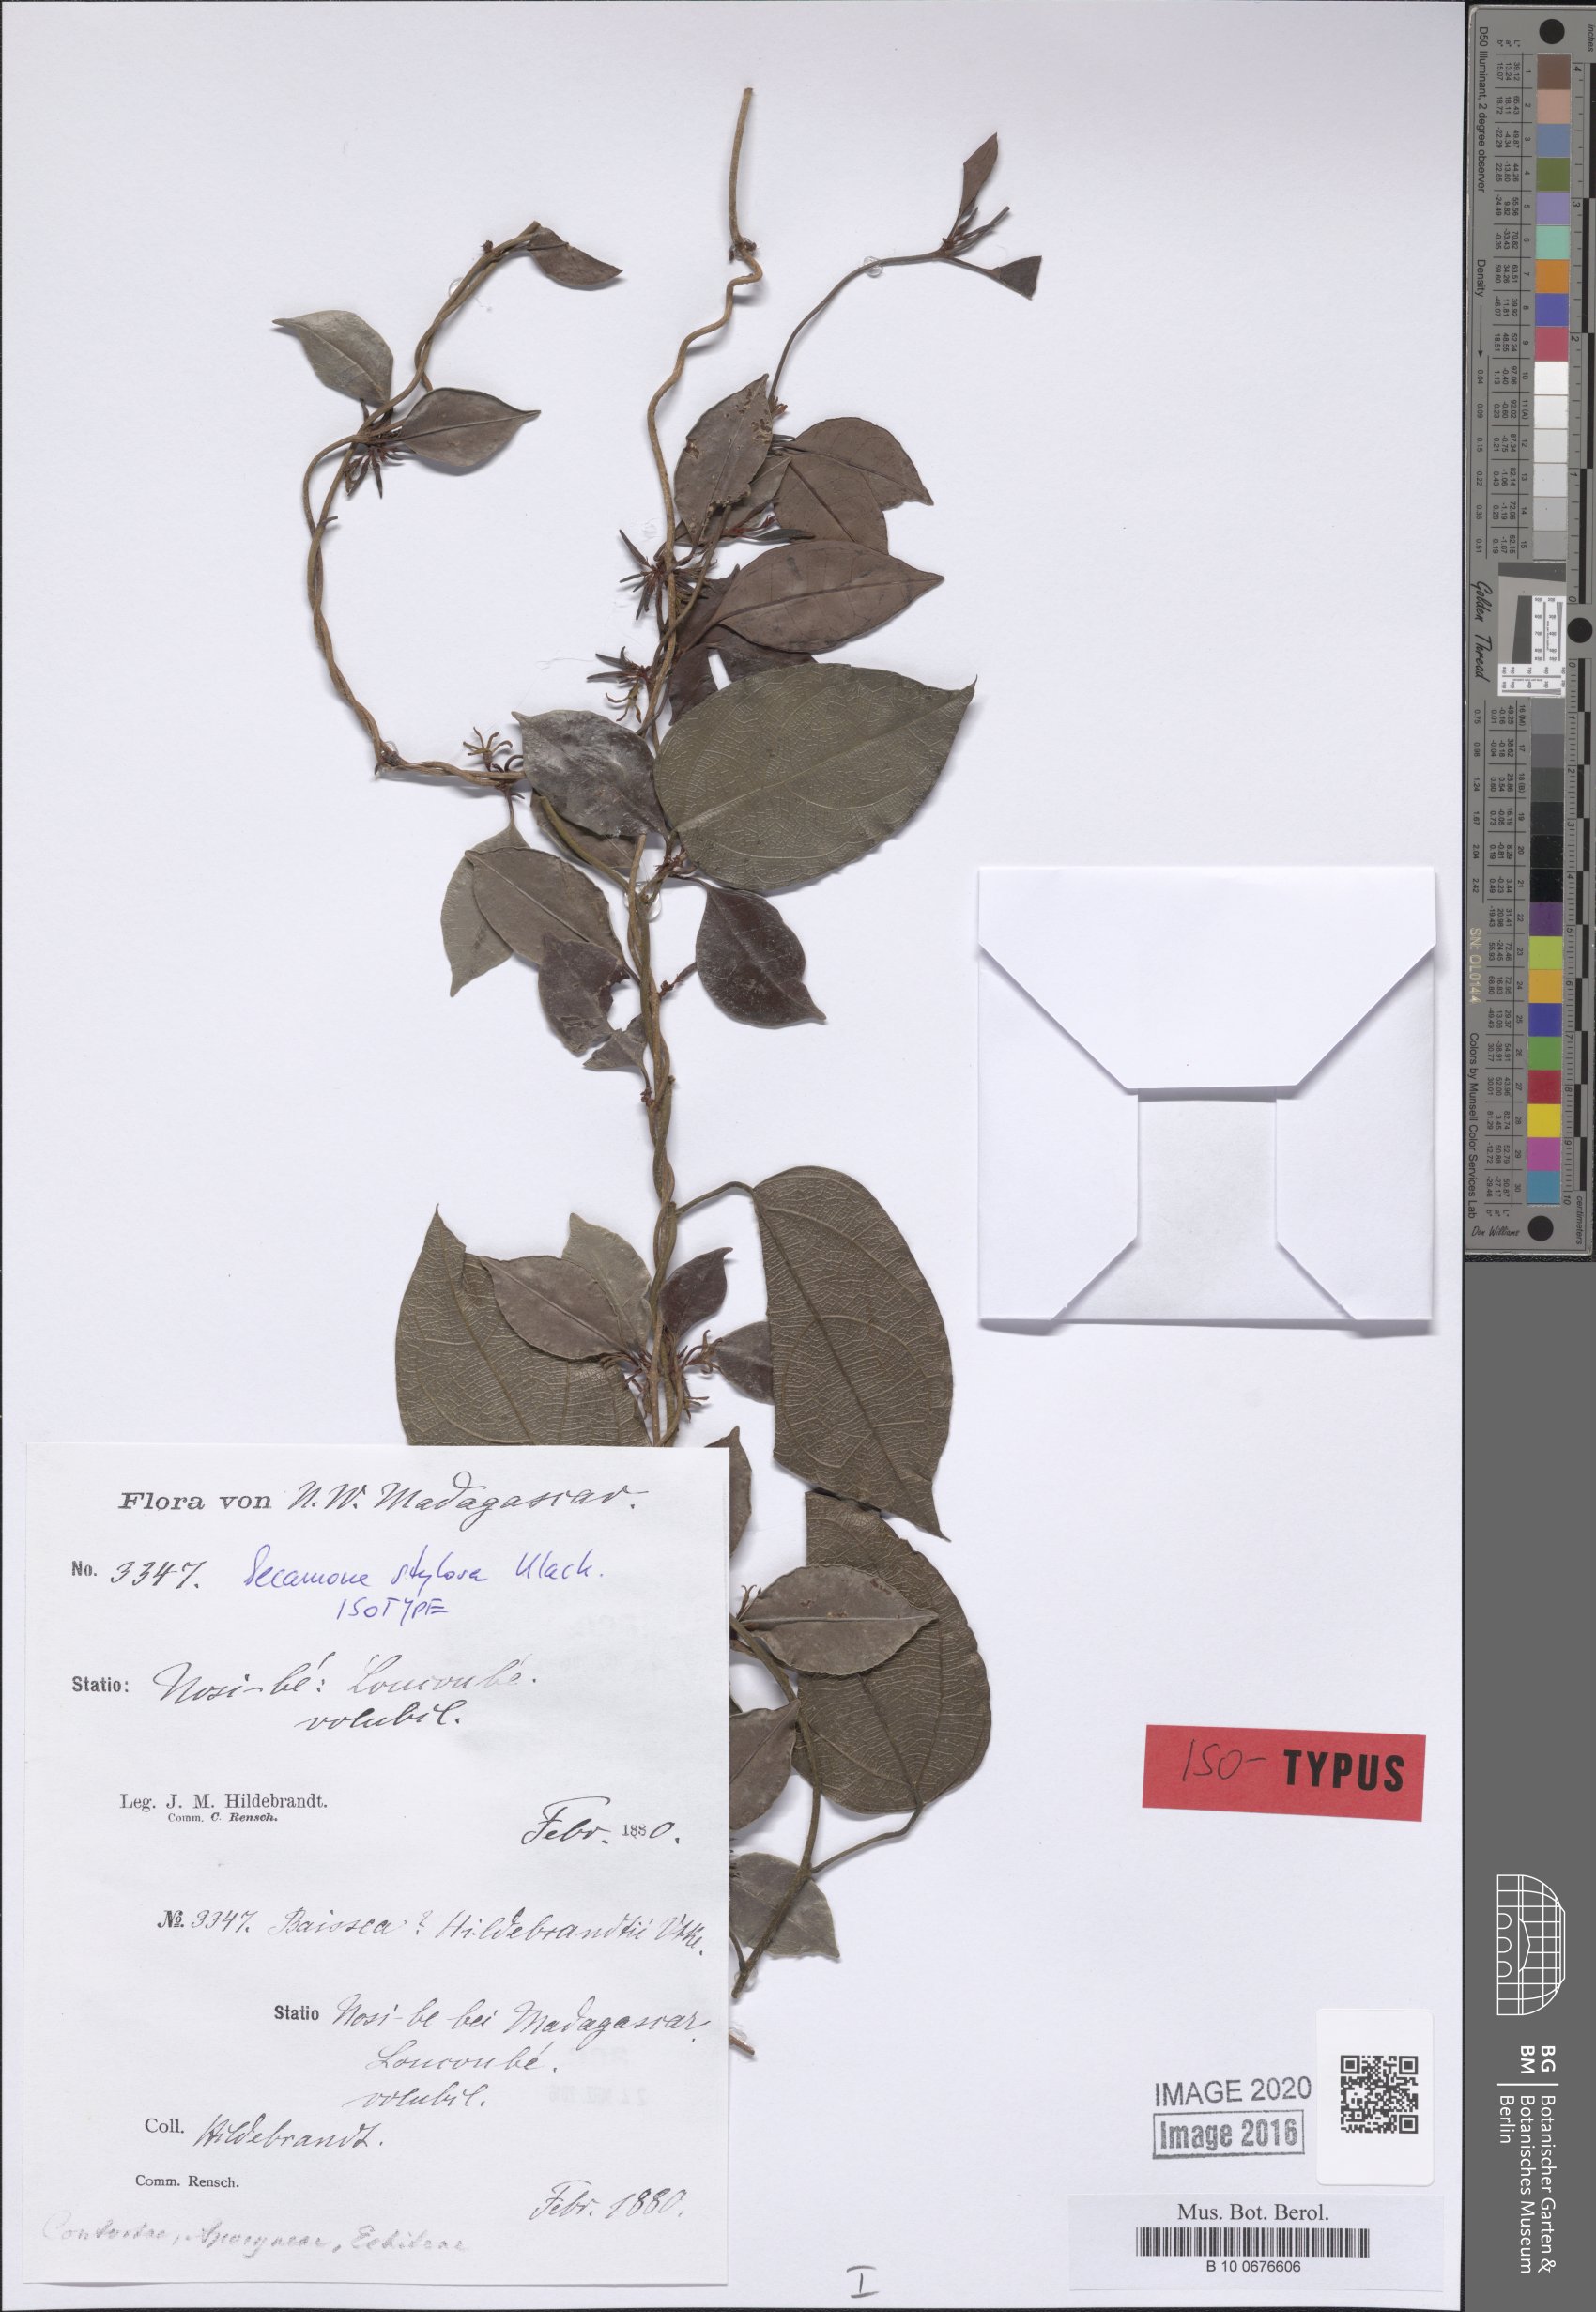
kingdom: Plantae
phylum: Tracheophyta
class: Magnoliopsida
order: Gentianales
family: Apocynaceae
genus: Secamone
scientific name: Secamone sulfurea
